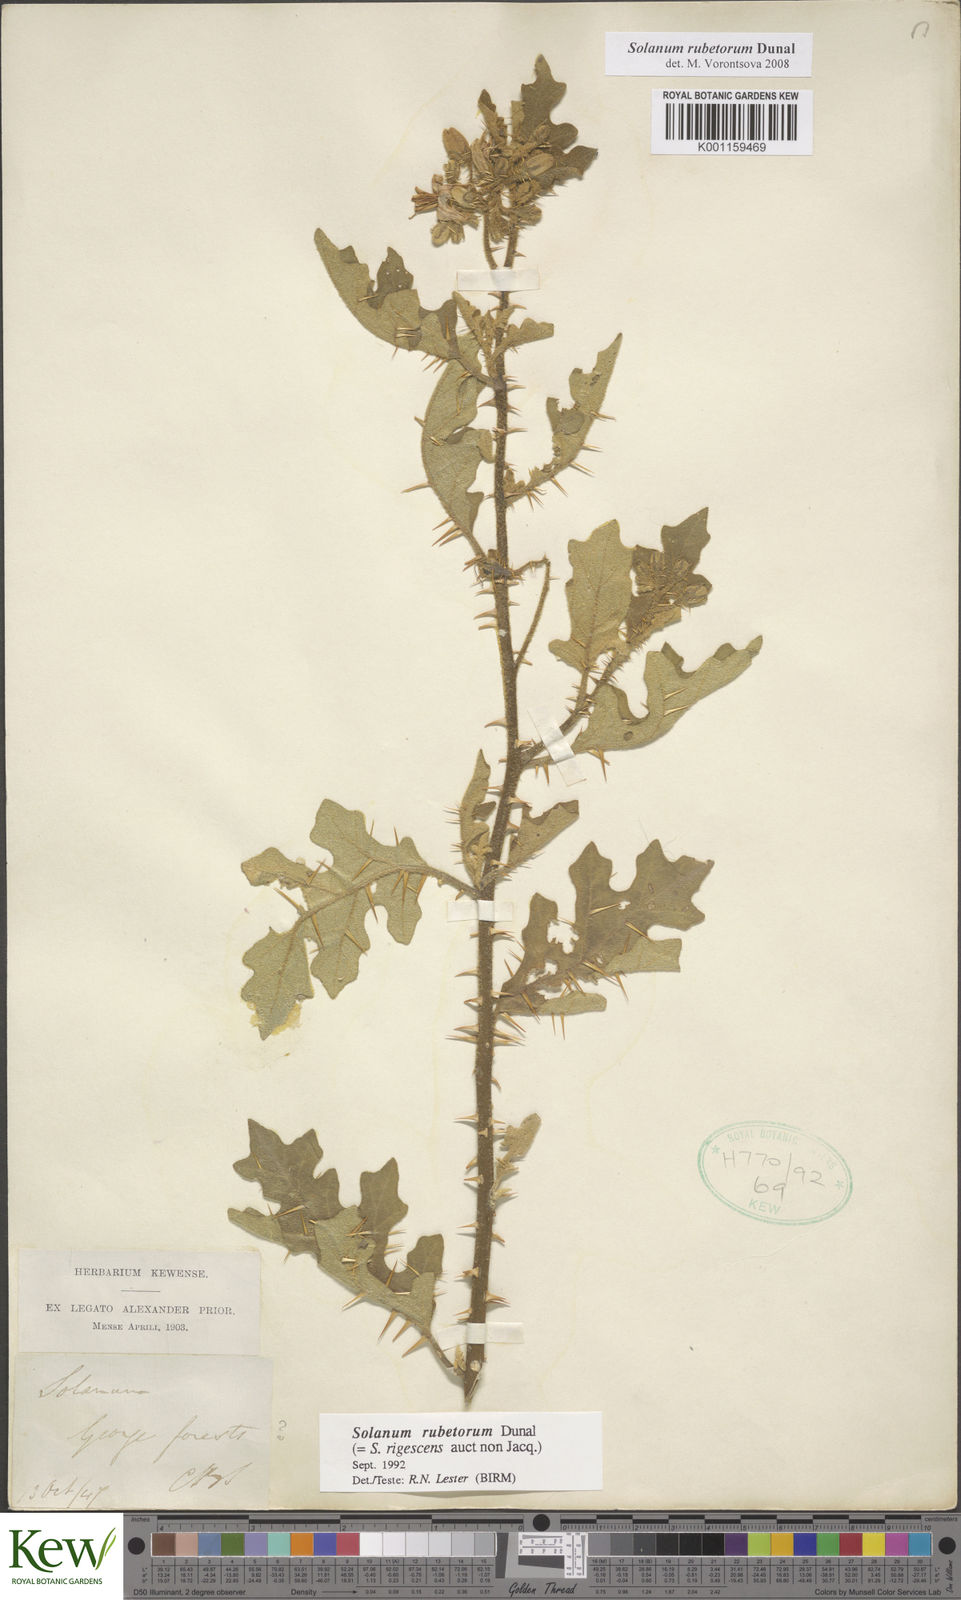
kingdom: Plantae
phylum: Tracheophyta
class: Magnoliopsida
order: Solanales
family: Solanaceae
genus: Solanum
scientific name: Solanum rubetorum
